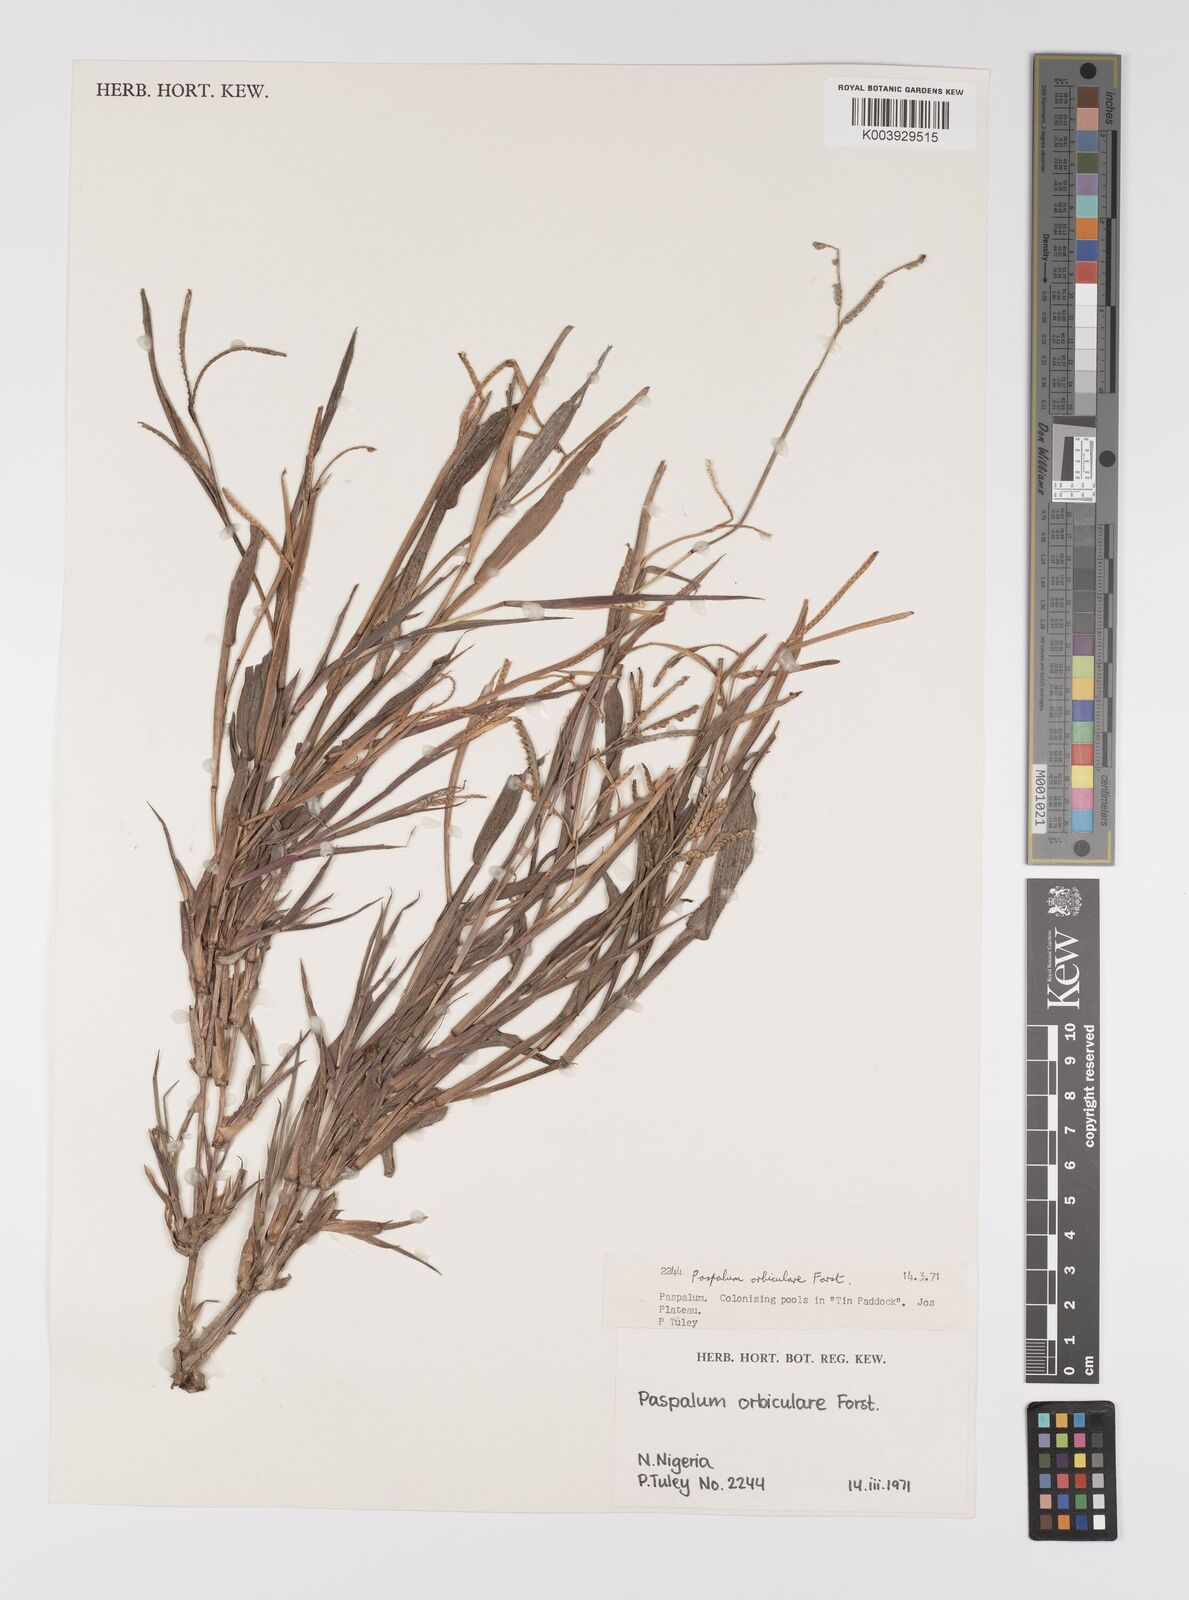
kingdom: Plantae
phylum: Tracheophyta
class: Liliopsida
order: Poales
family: Poaceae
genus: Paspalum
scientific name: Paspalum scrobiculatum
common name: Kodo millet
